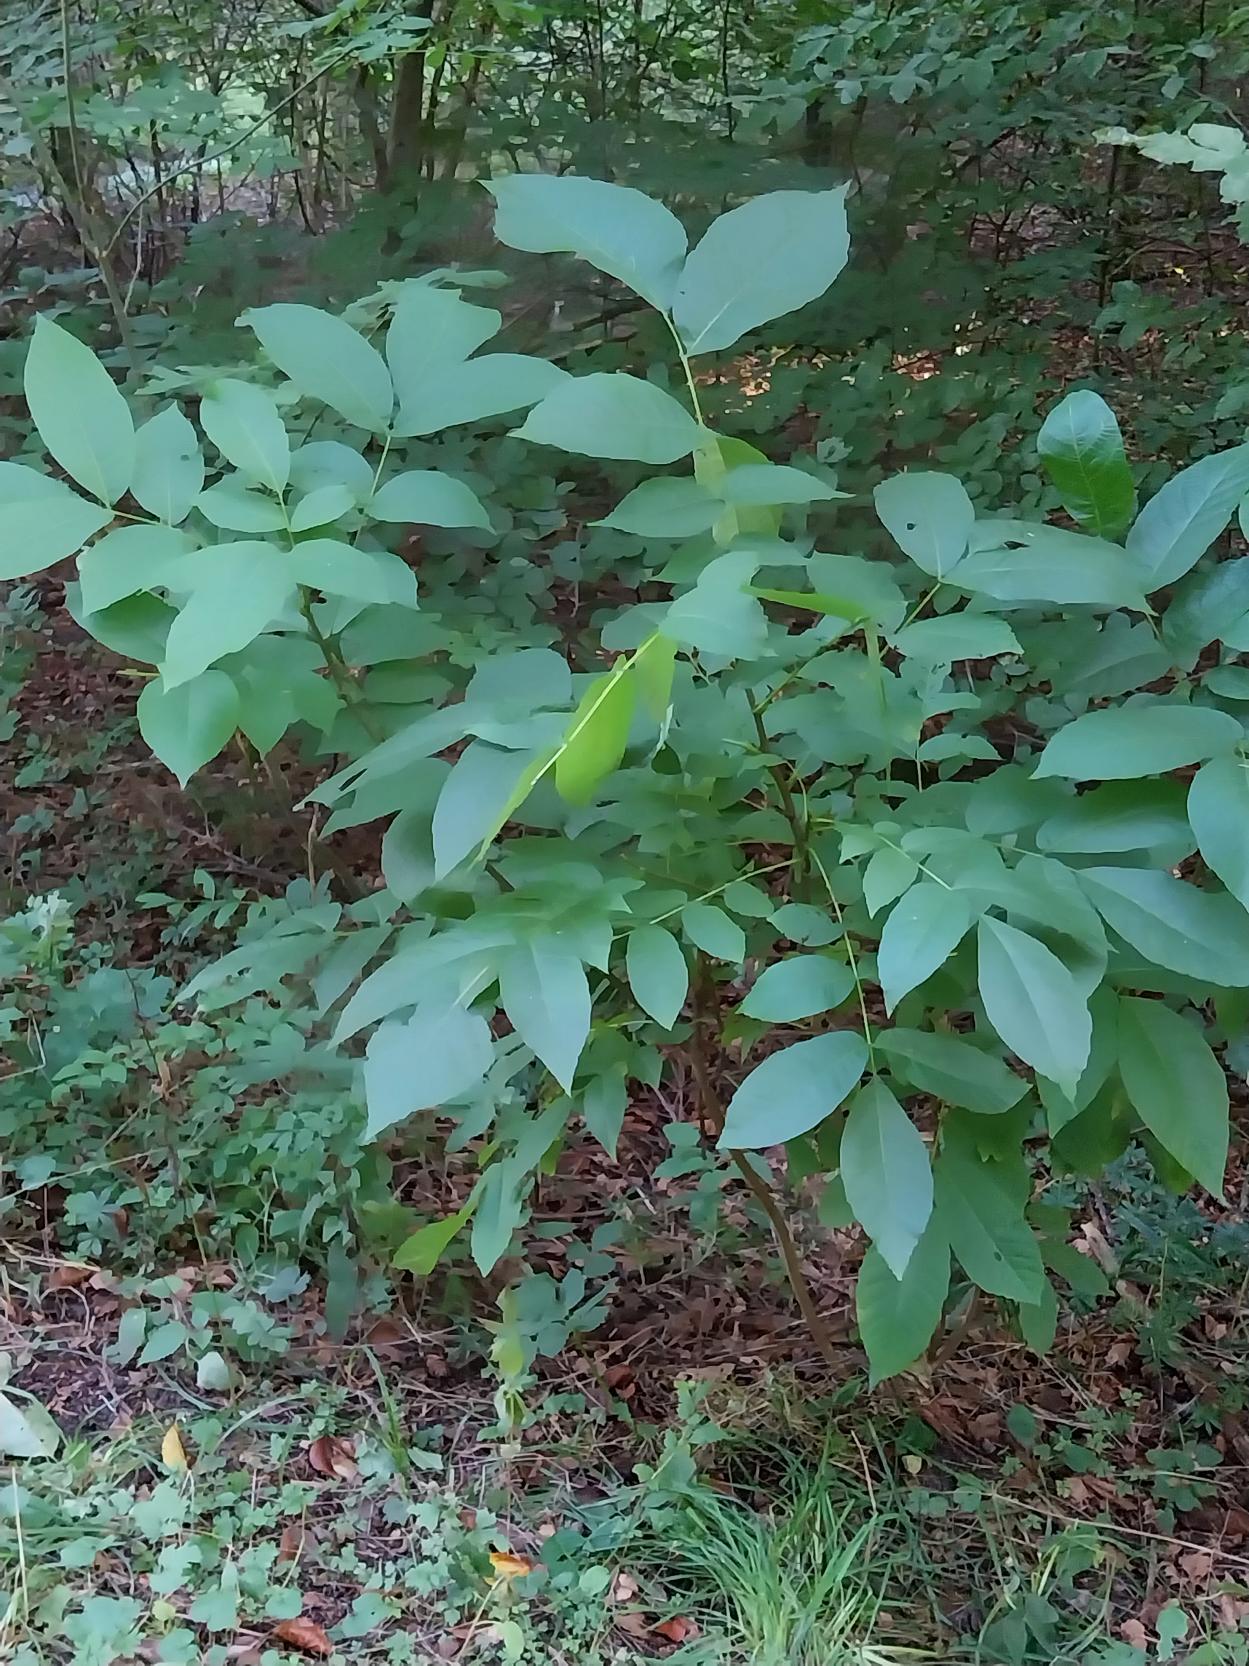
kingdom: Plantae
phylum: Tracheophyta
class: Magnoliopsida
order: Fagales
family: Juglandaceae
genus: Juglans
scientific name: Juglans regia
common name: Almindelig valnød
